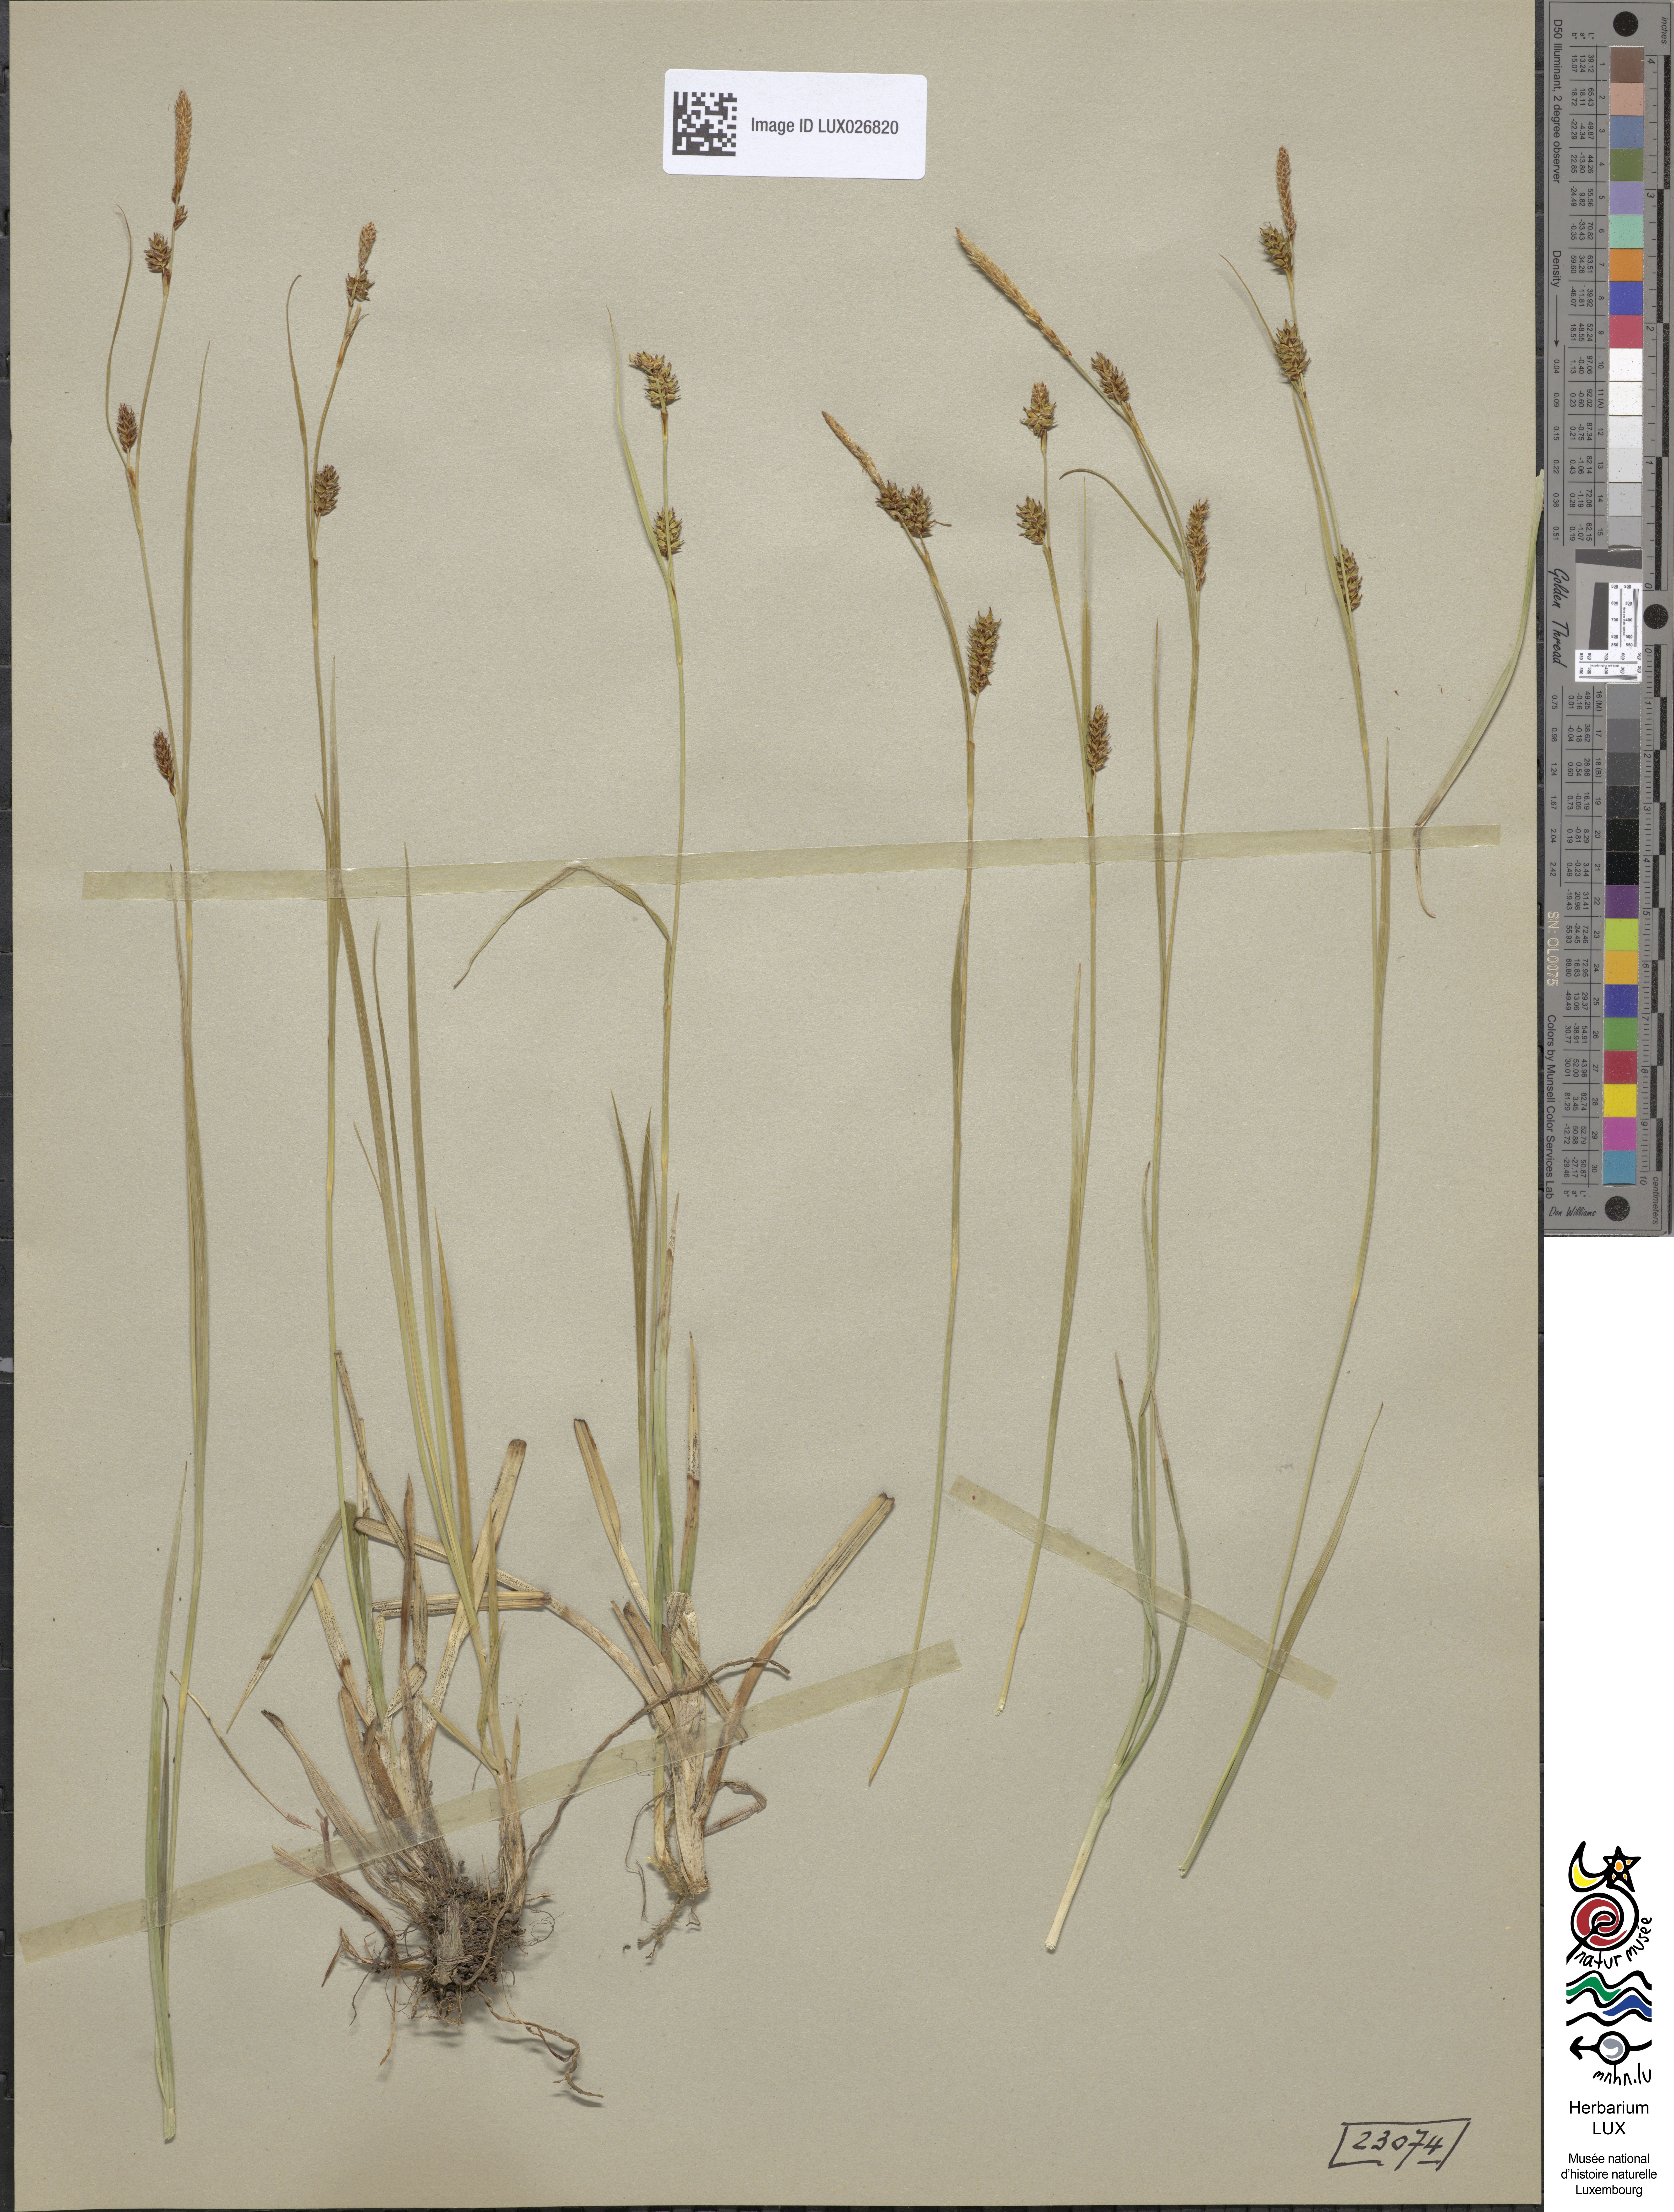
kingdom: Plantae
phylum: Tracheophyta
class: Liliopsida
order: Poales
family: Cyperaceae
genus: Carex
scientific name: Carex hostiana
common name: Tawny sedge
